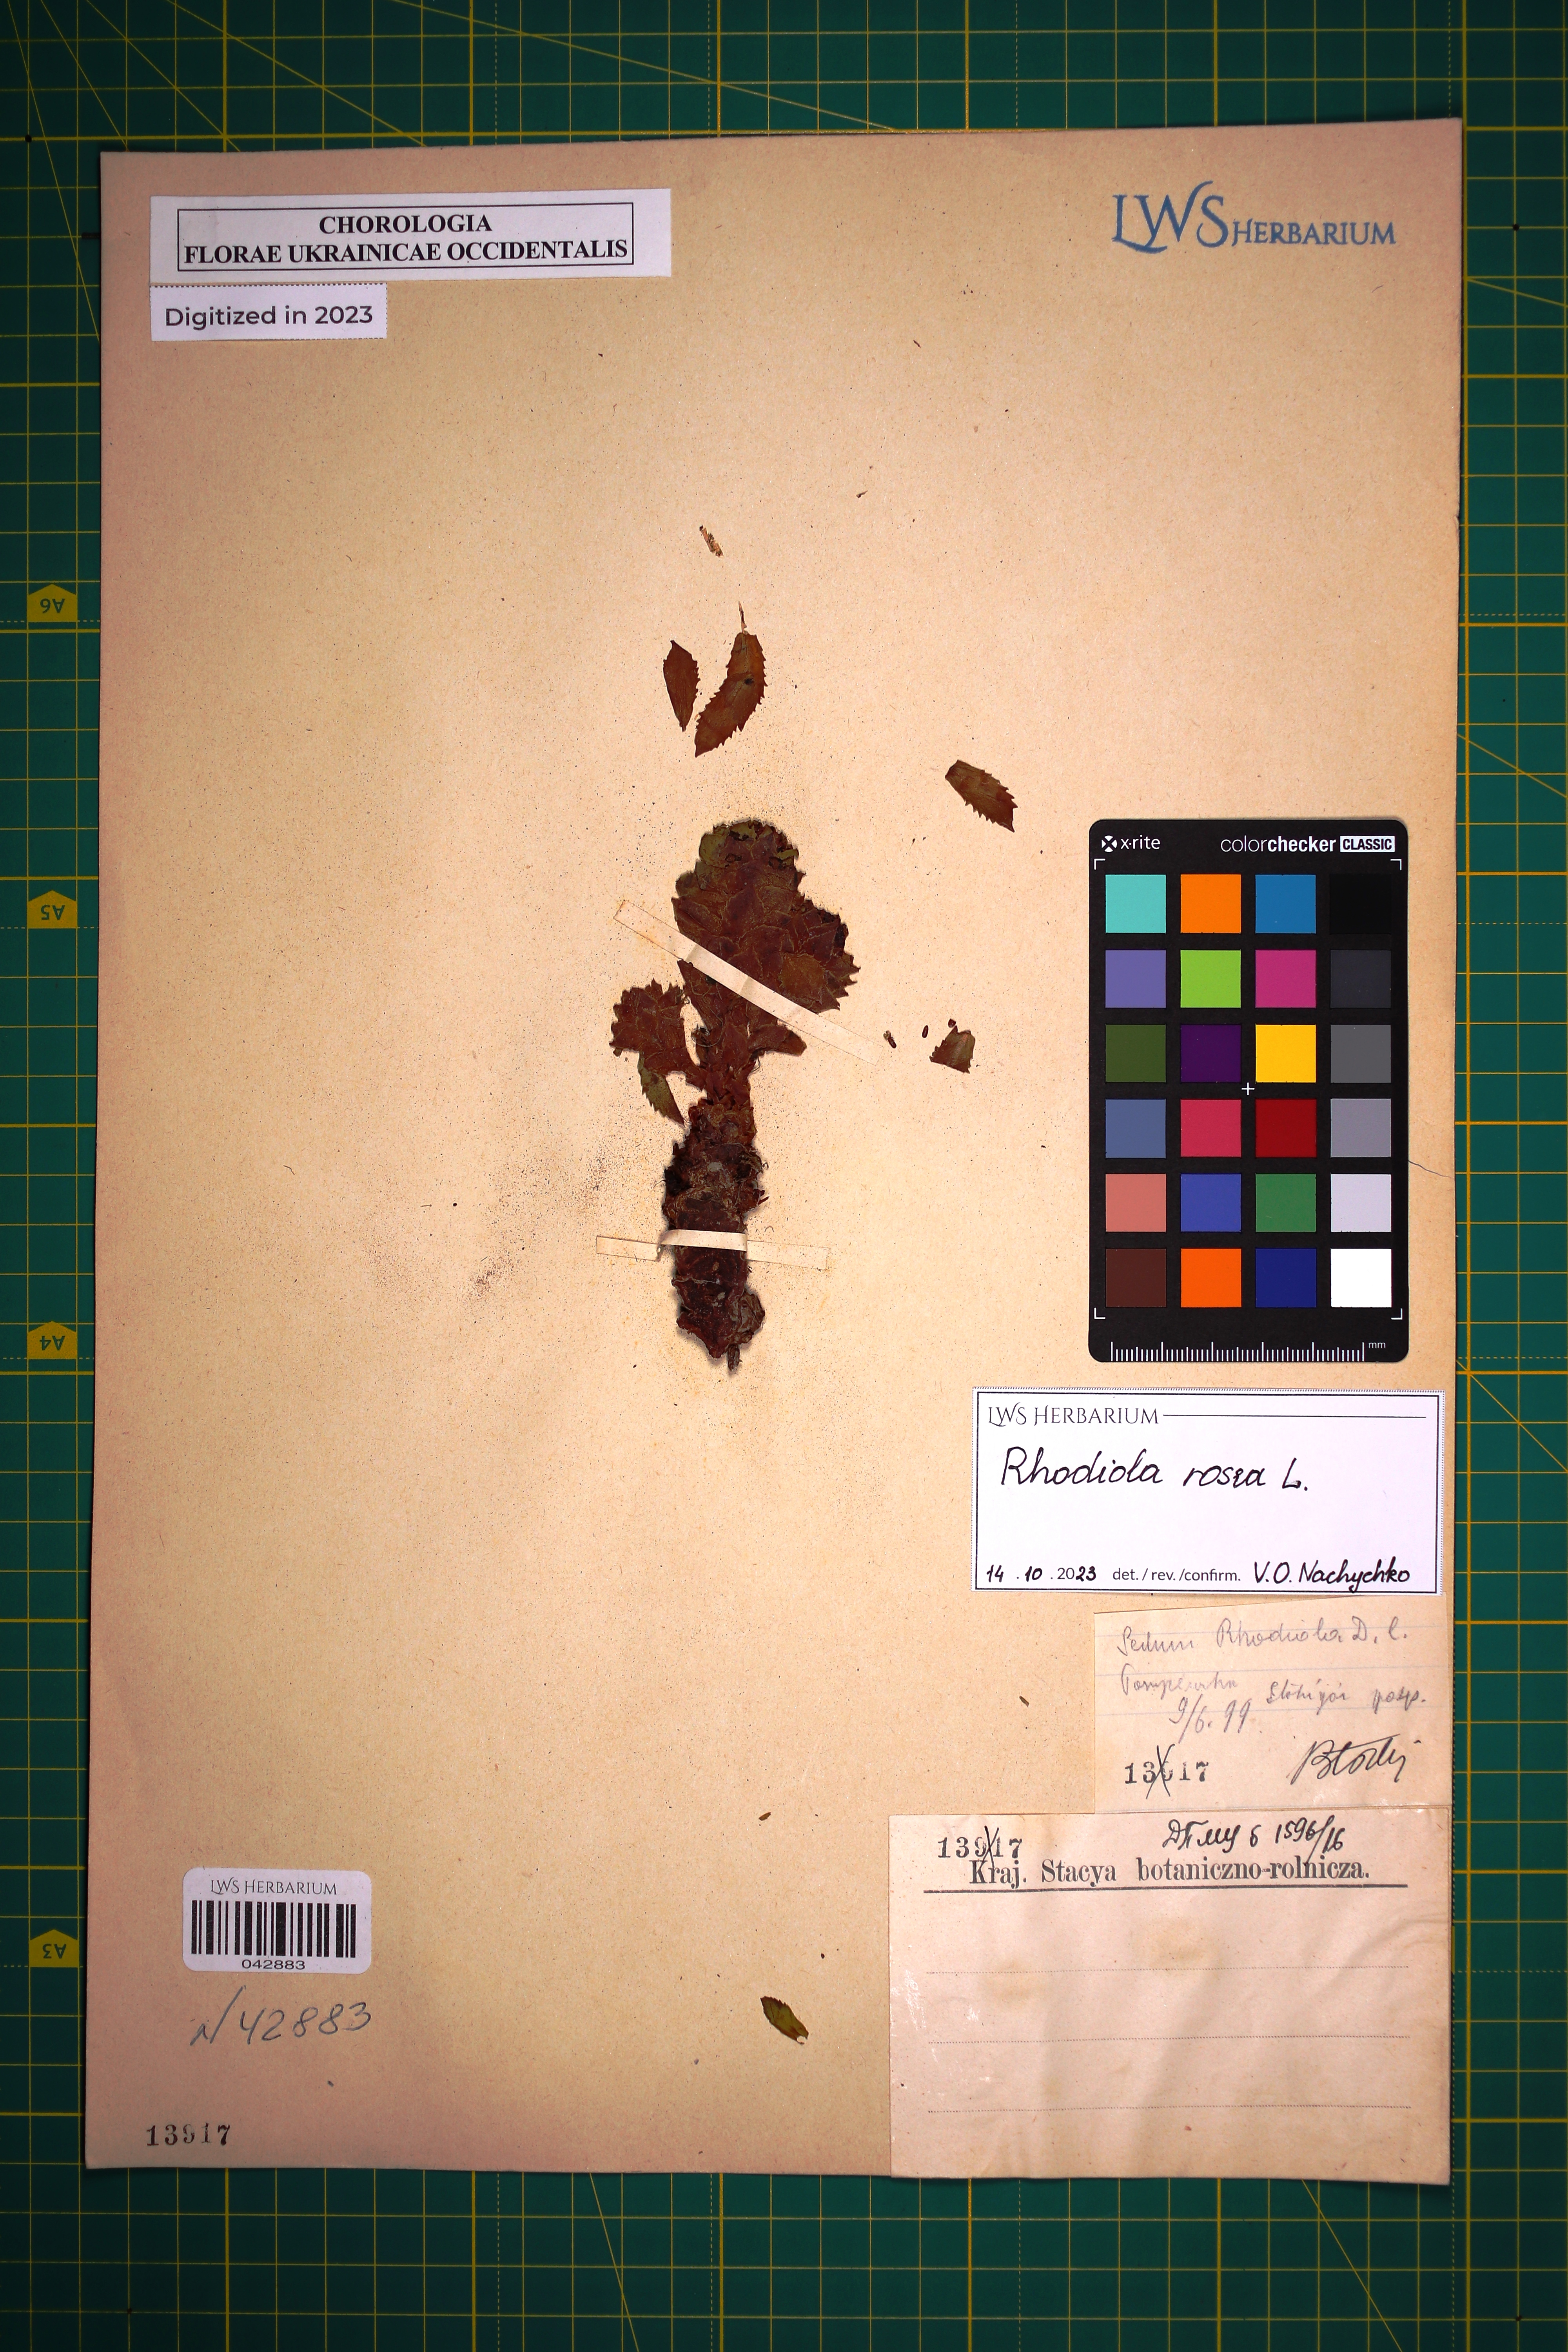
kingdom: Plantae
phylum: Tracheophyta
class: Magnoliopsida
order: Saxifragales
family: Crassulaceae
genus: Rhodiola
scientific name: Rhodiola rosea
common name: Roseroot
